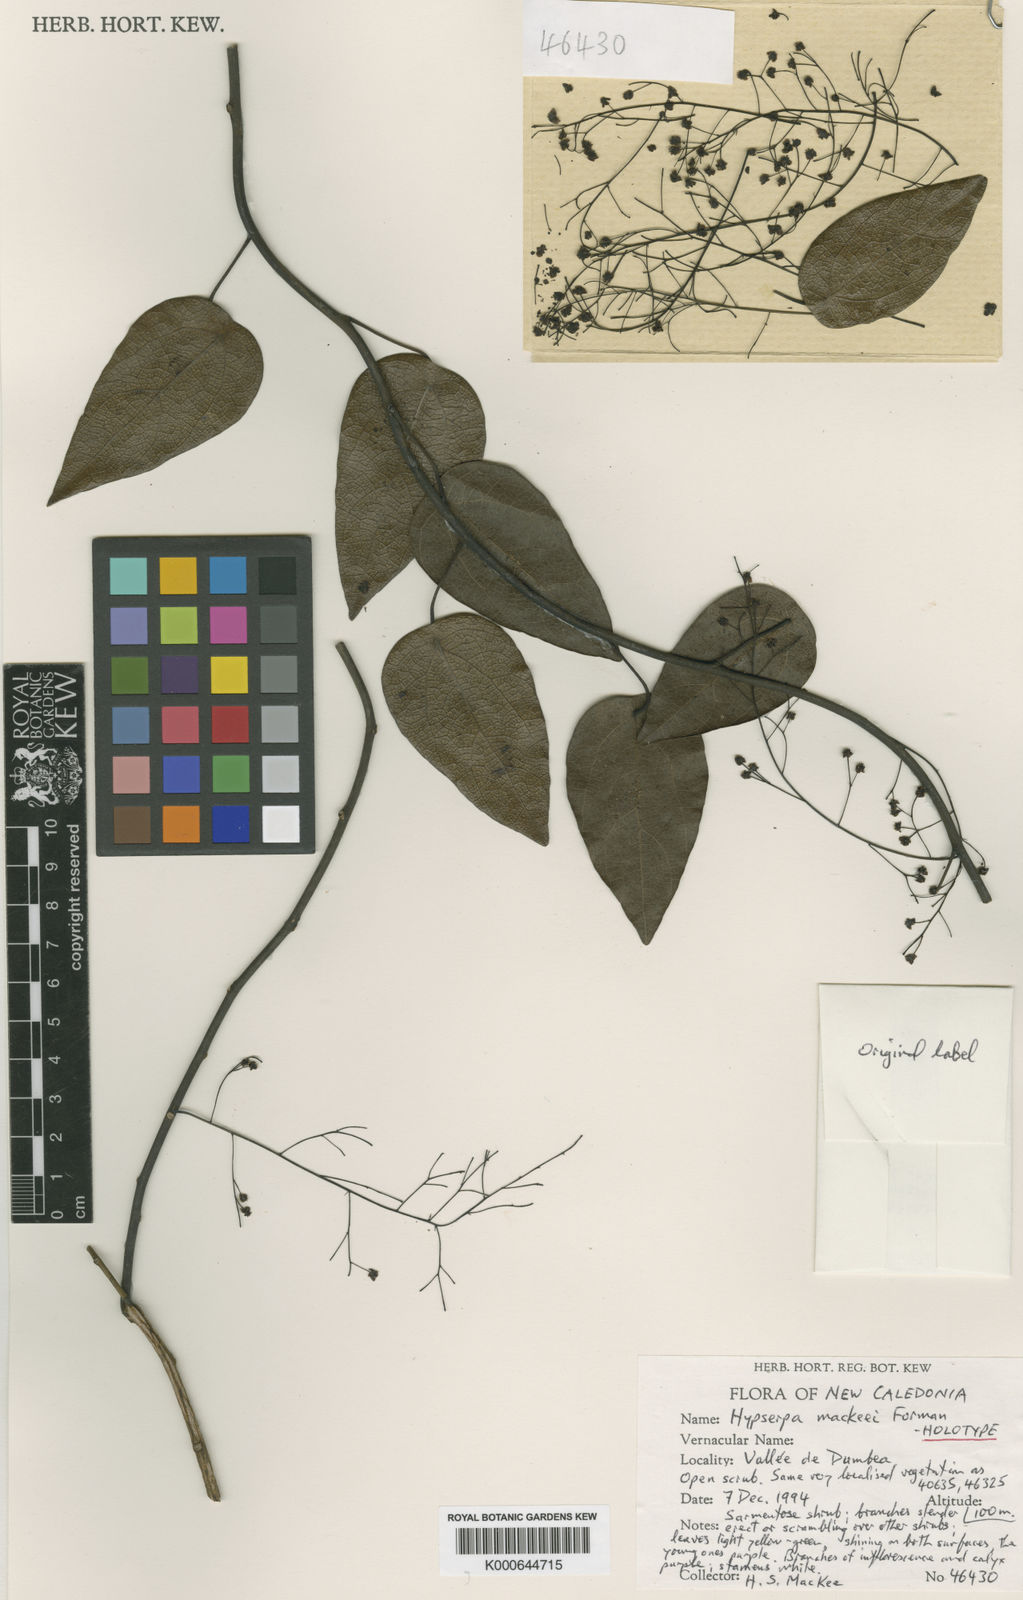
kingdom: Plantae
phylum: Tracheophyta
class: Magnoliopsida
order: Ranunculales
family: Menispermaceae
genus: Hypserpa
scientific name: Hypserpa mackeei
